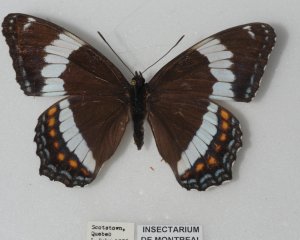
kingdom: Animalia
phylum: Arthropoda
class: Insecta
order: Lepidoptera
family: Nymphalidae
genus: Limenitis
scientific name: Limenitis arthemis
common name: Red-spotted Admiral
